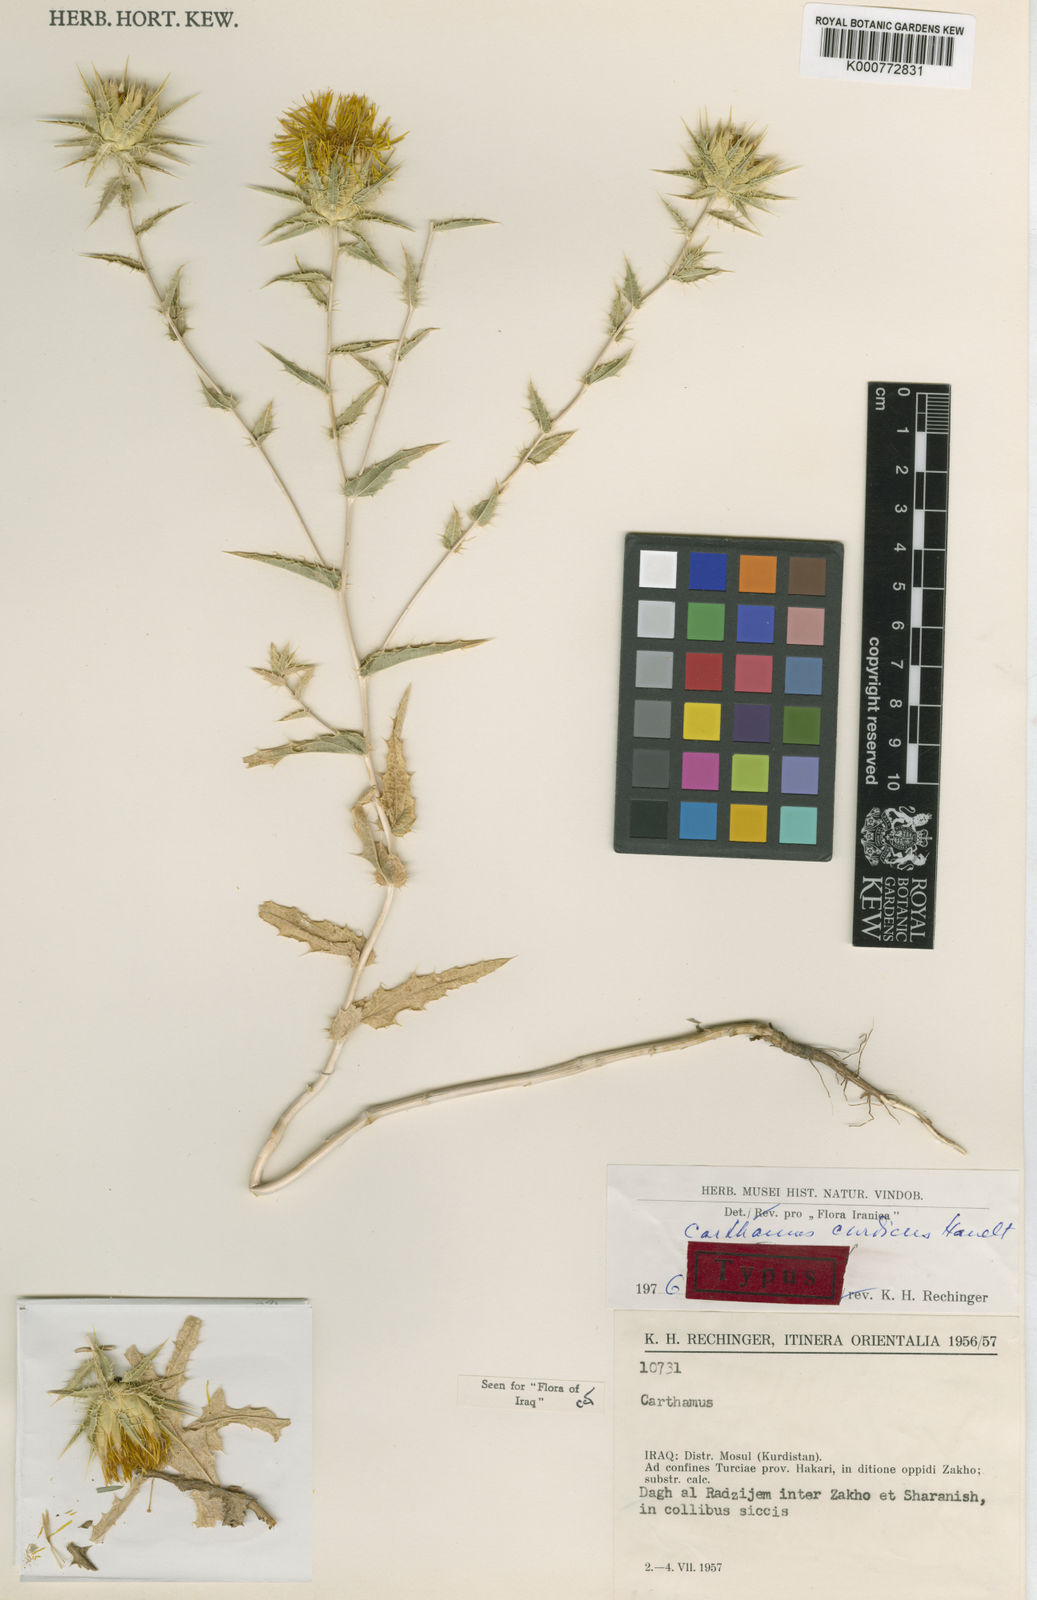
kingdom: Plantae
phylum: Tracheophyta
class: Magnoliopsida
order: Asterales
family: Asteraceae
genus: Carthamus
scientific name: Carthamus curdicus
